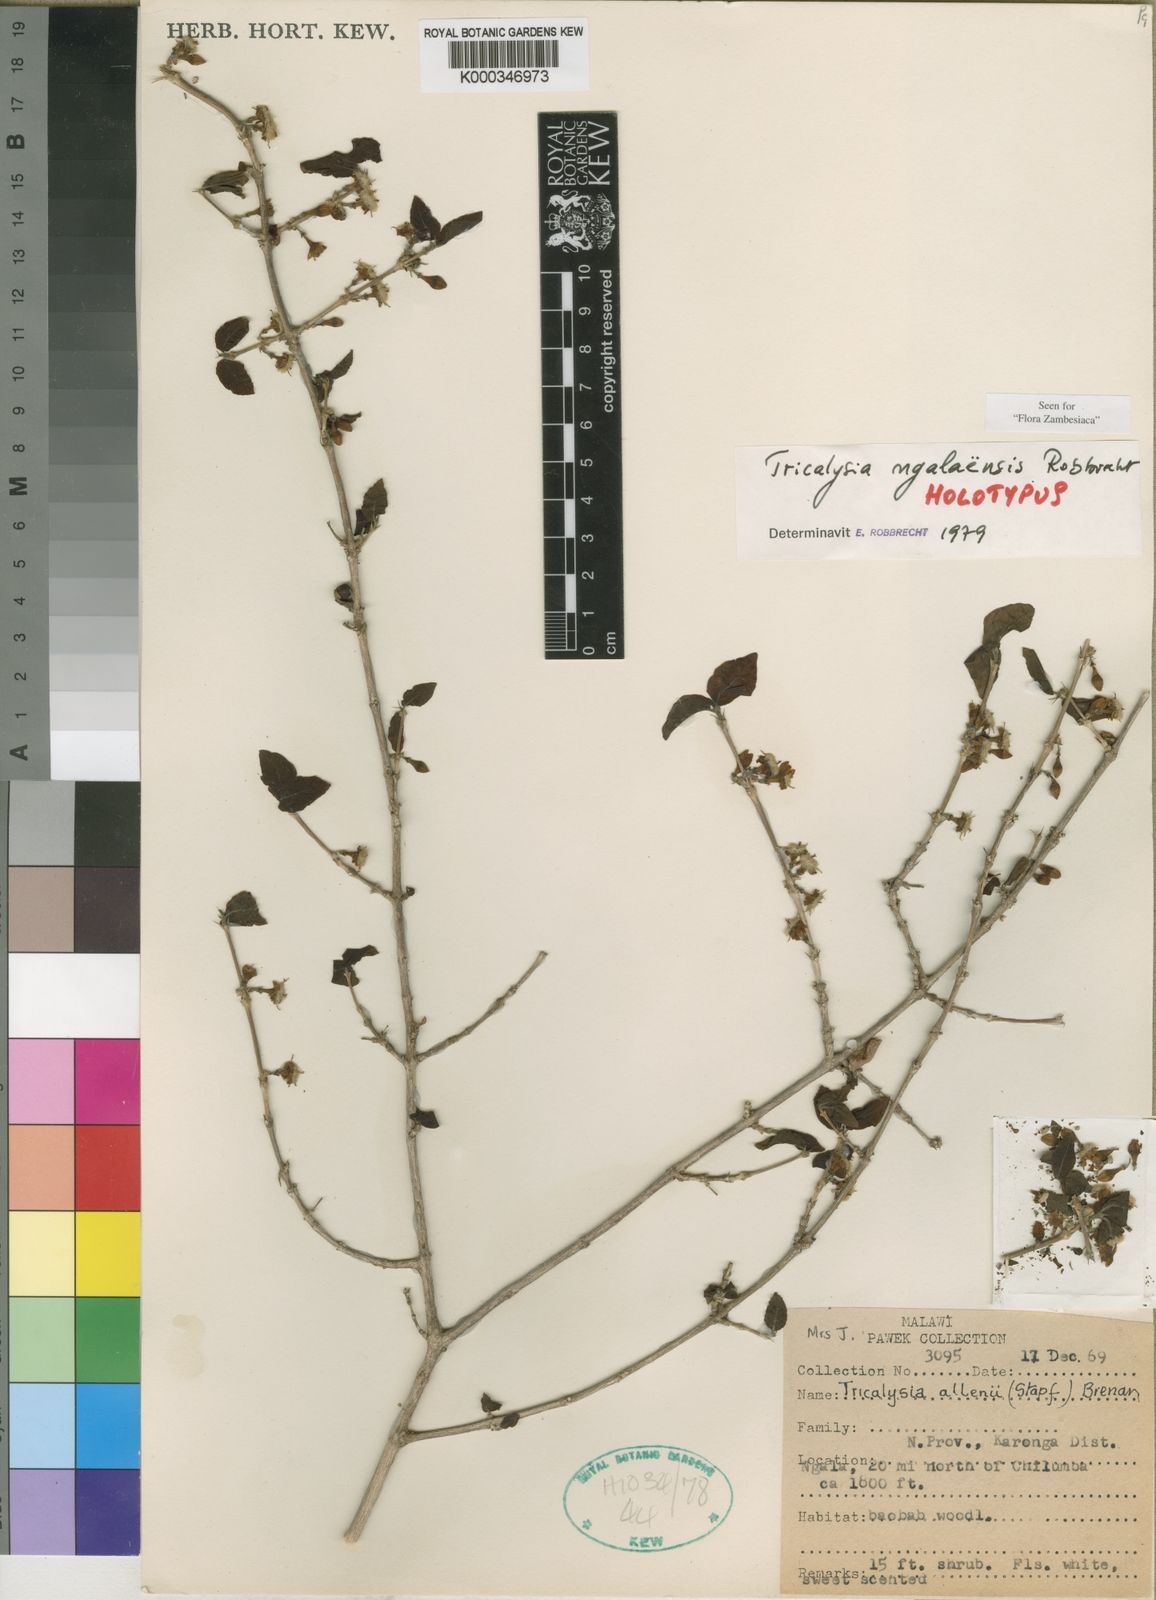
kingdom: Plantae
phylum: Tracheophyta
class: Magnoliopsida
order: Gentianales
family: Rubiaceae
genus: Empogona
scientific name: Empogona ngalaensis
